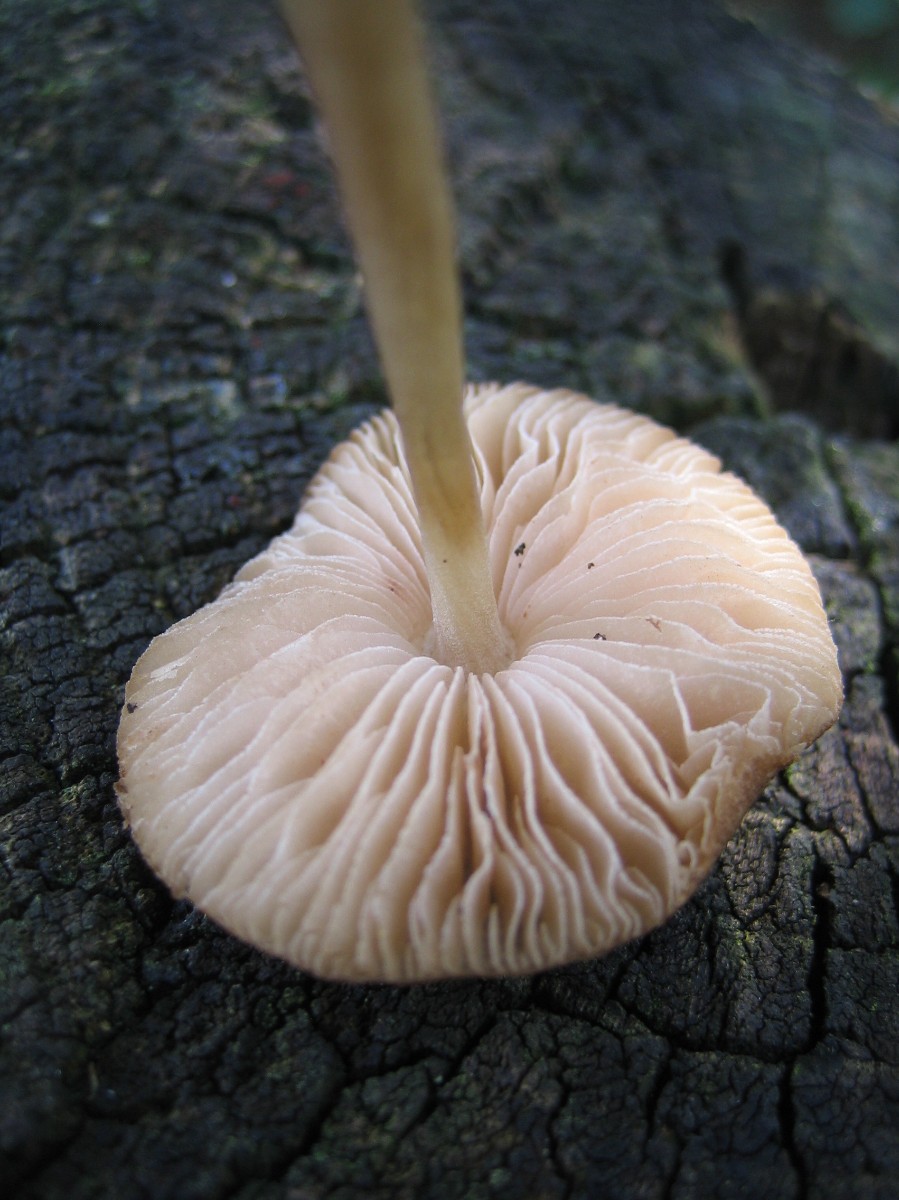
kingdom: Fungi
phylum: Basidiomycota
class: Agaricomycetes
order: Agaricales
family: Pluteaceae
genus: Pluteus
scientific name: Pluteus
